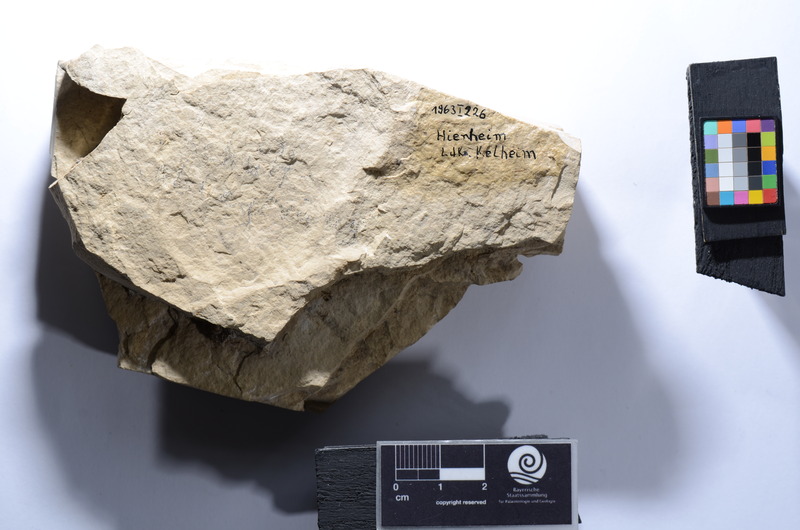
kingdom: Animalia
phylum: Chordata
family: Macrosemiidae
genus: Propterus
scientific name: Propterus
